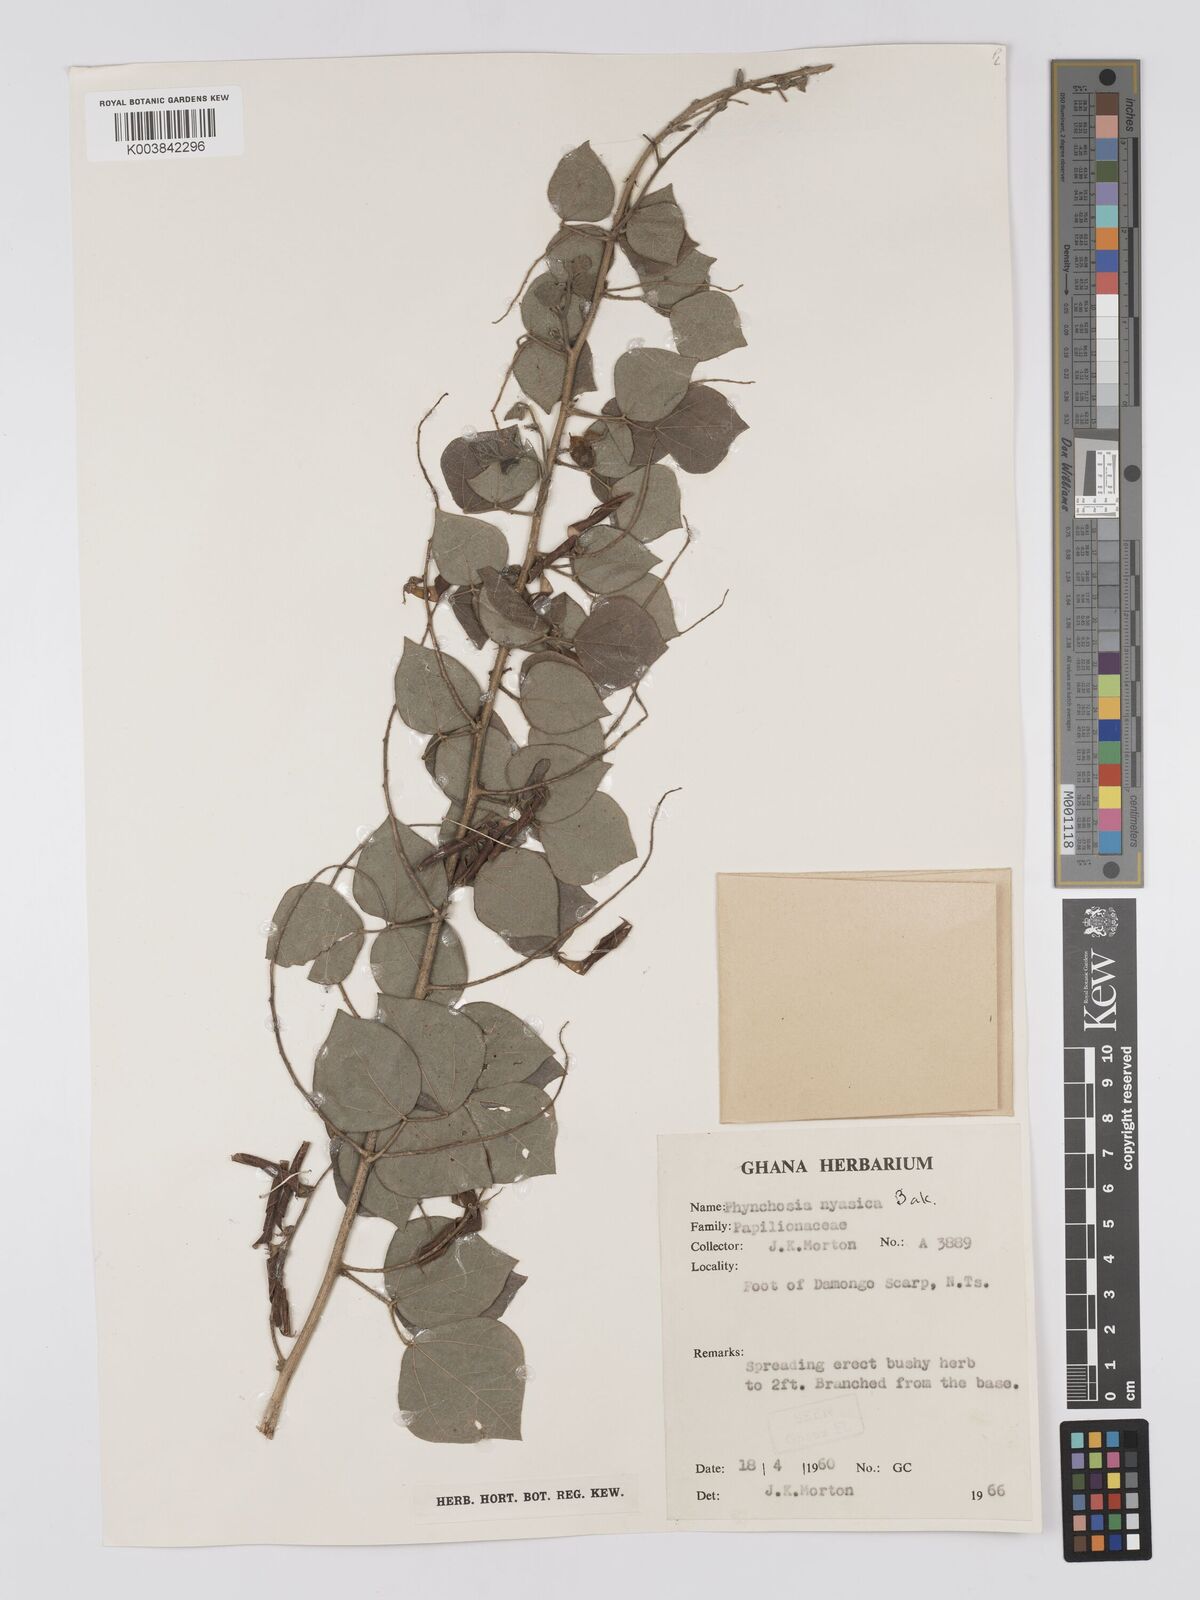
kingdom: Plantae
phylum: Tracheophyta
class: Magnoliopsida
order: Fabales
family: Fabaceae
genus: Rhynchosia
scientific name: Rhynchosia nyasica
